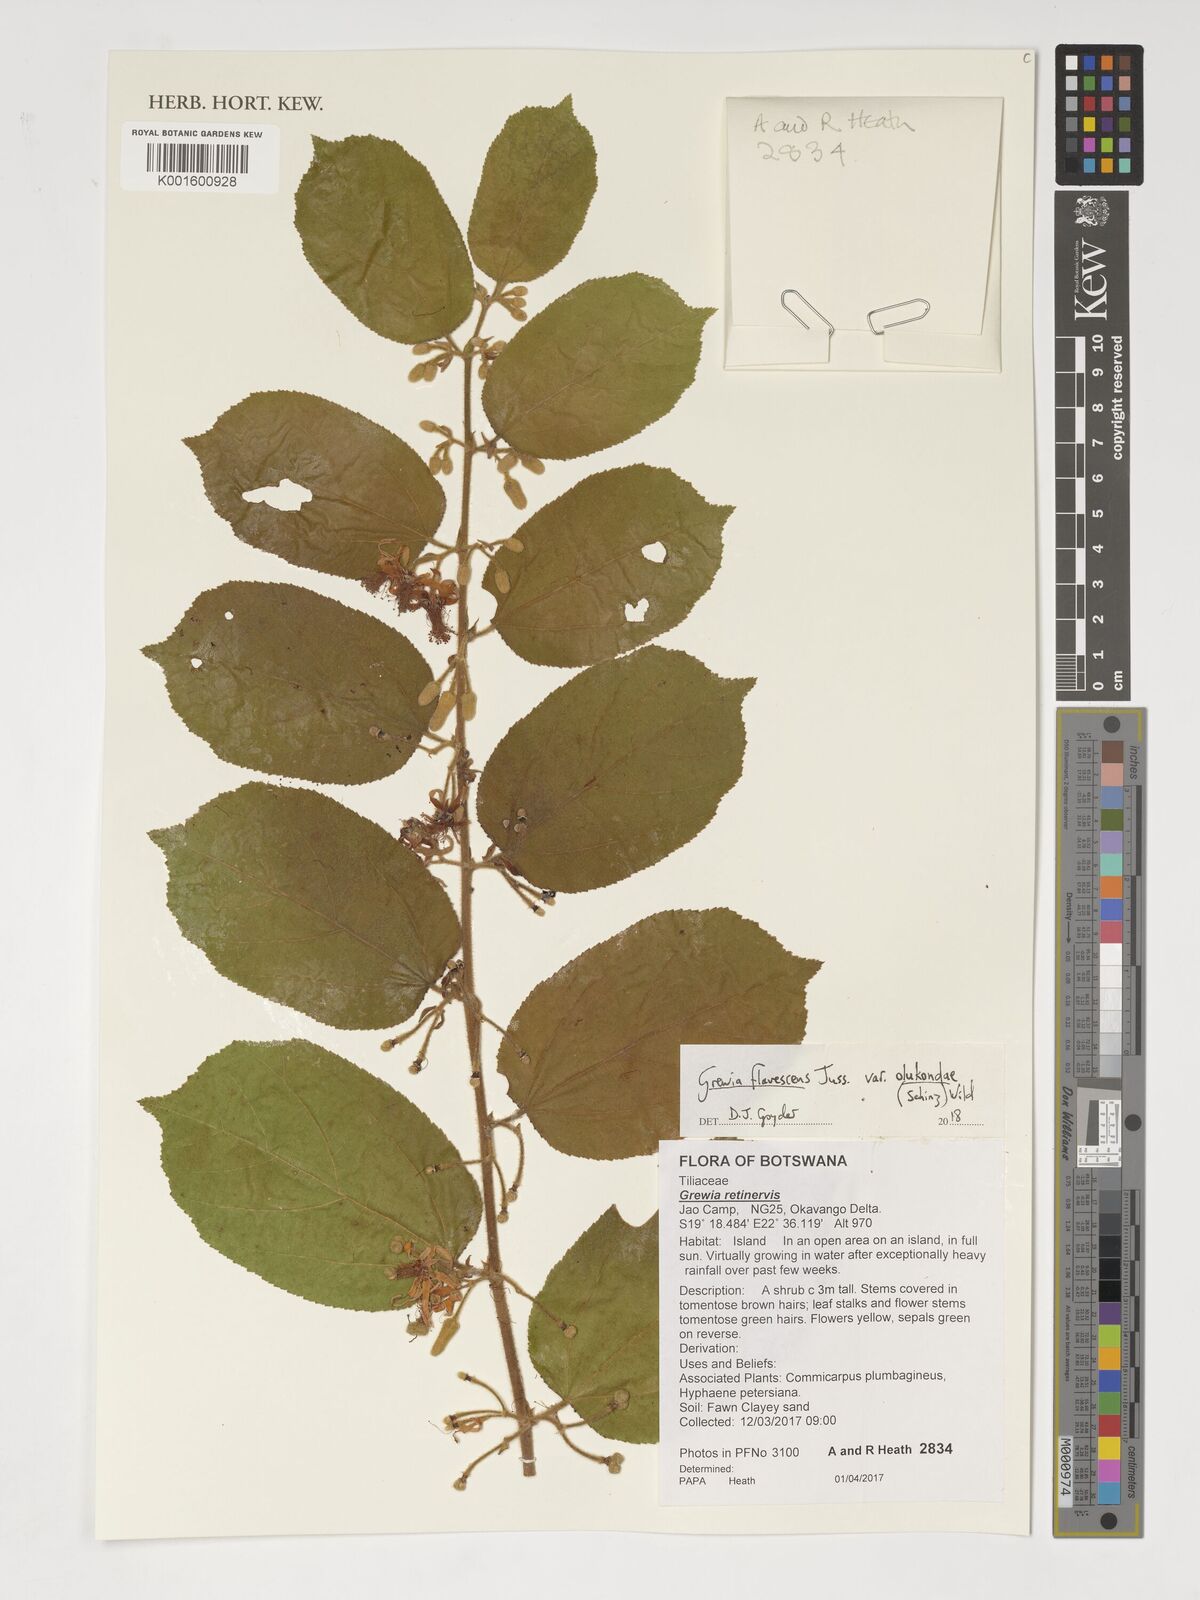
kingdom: Plantae
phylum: Tracheophyta
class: Magnoliopsida
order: Malvales
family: Malvaceae
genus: Grewia
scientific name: Grewia retinervis
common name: Kalahari raisin
